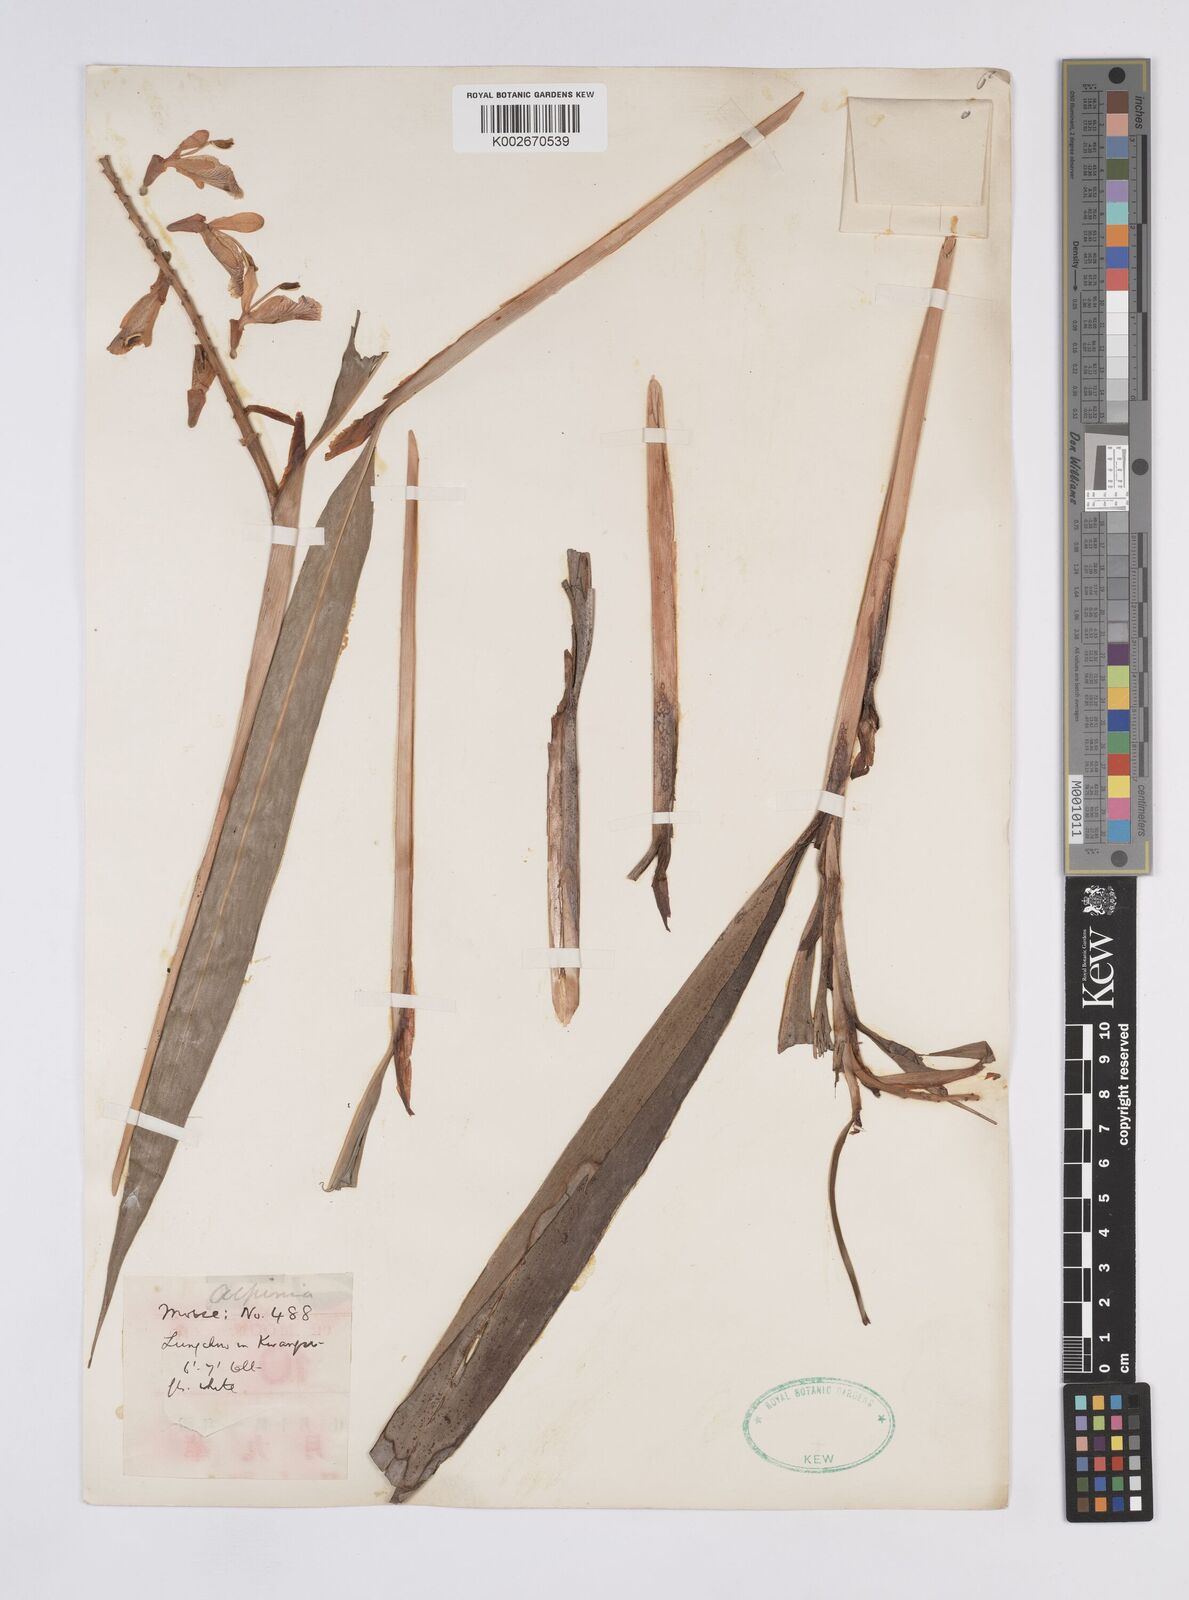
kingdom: Plantae
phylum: Tracheophyta
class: Liliopsida
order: Zingiberales
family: Zingiberaceae
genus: Alpinia
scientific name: Alpinia officinarum
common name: Chinese-ginger
